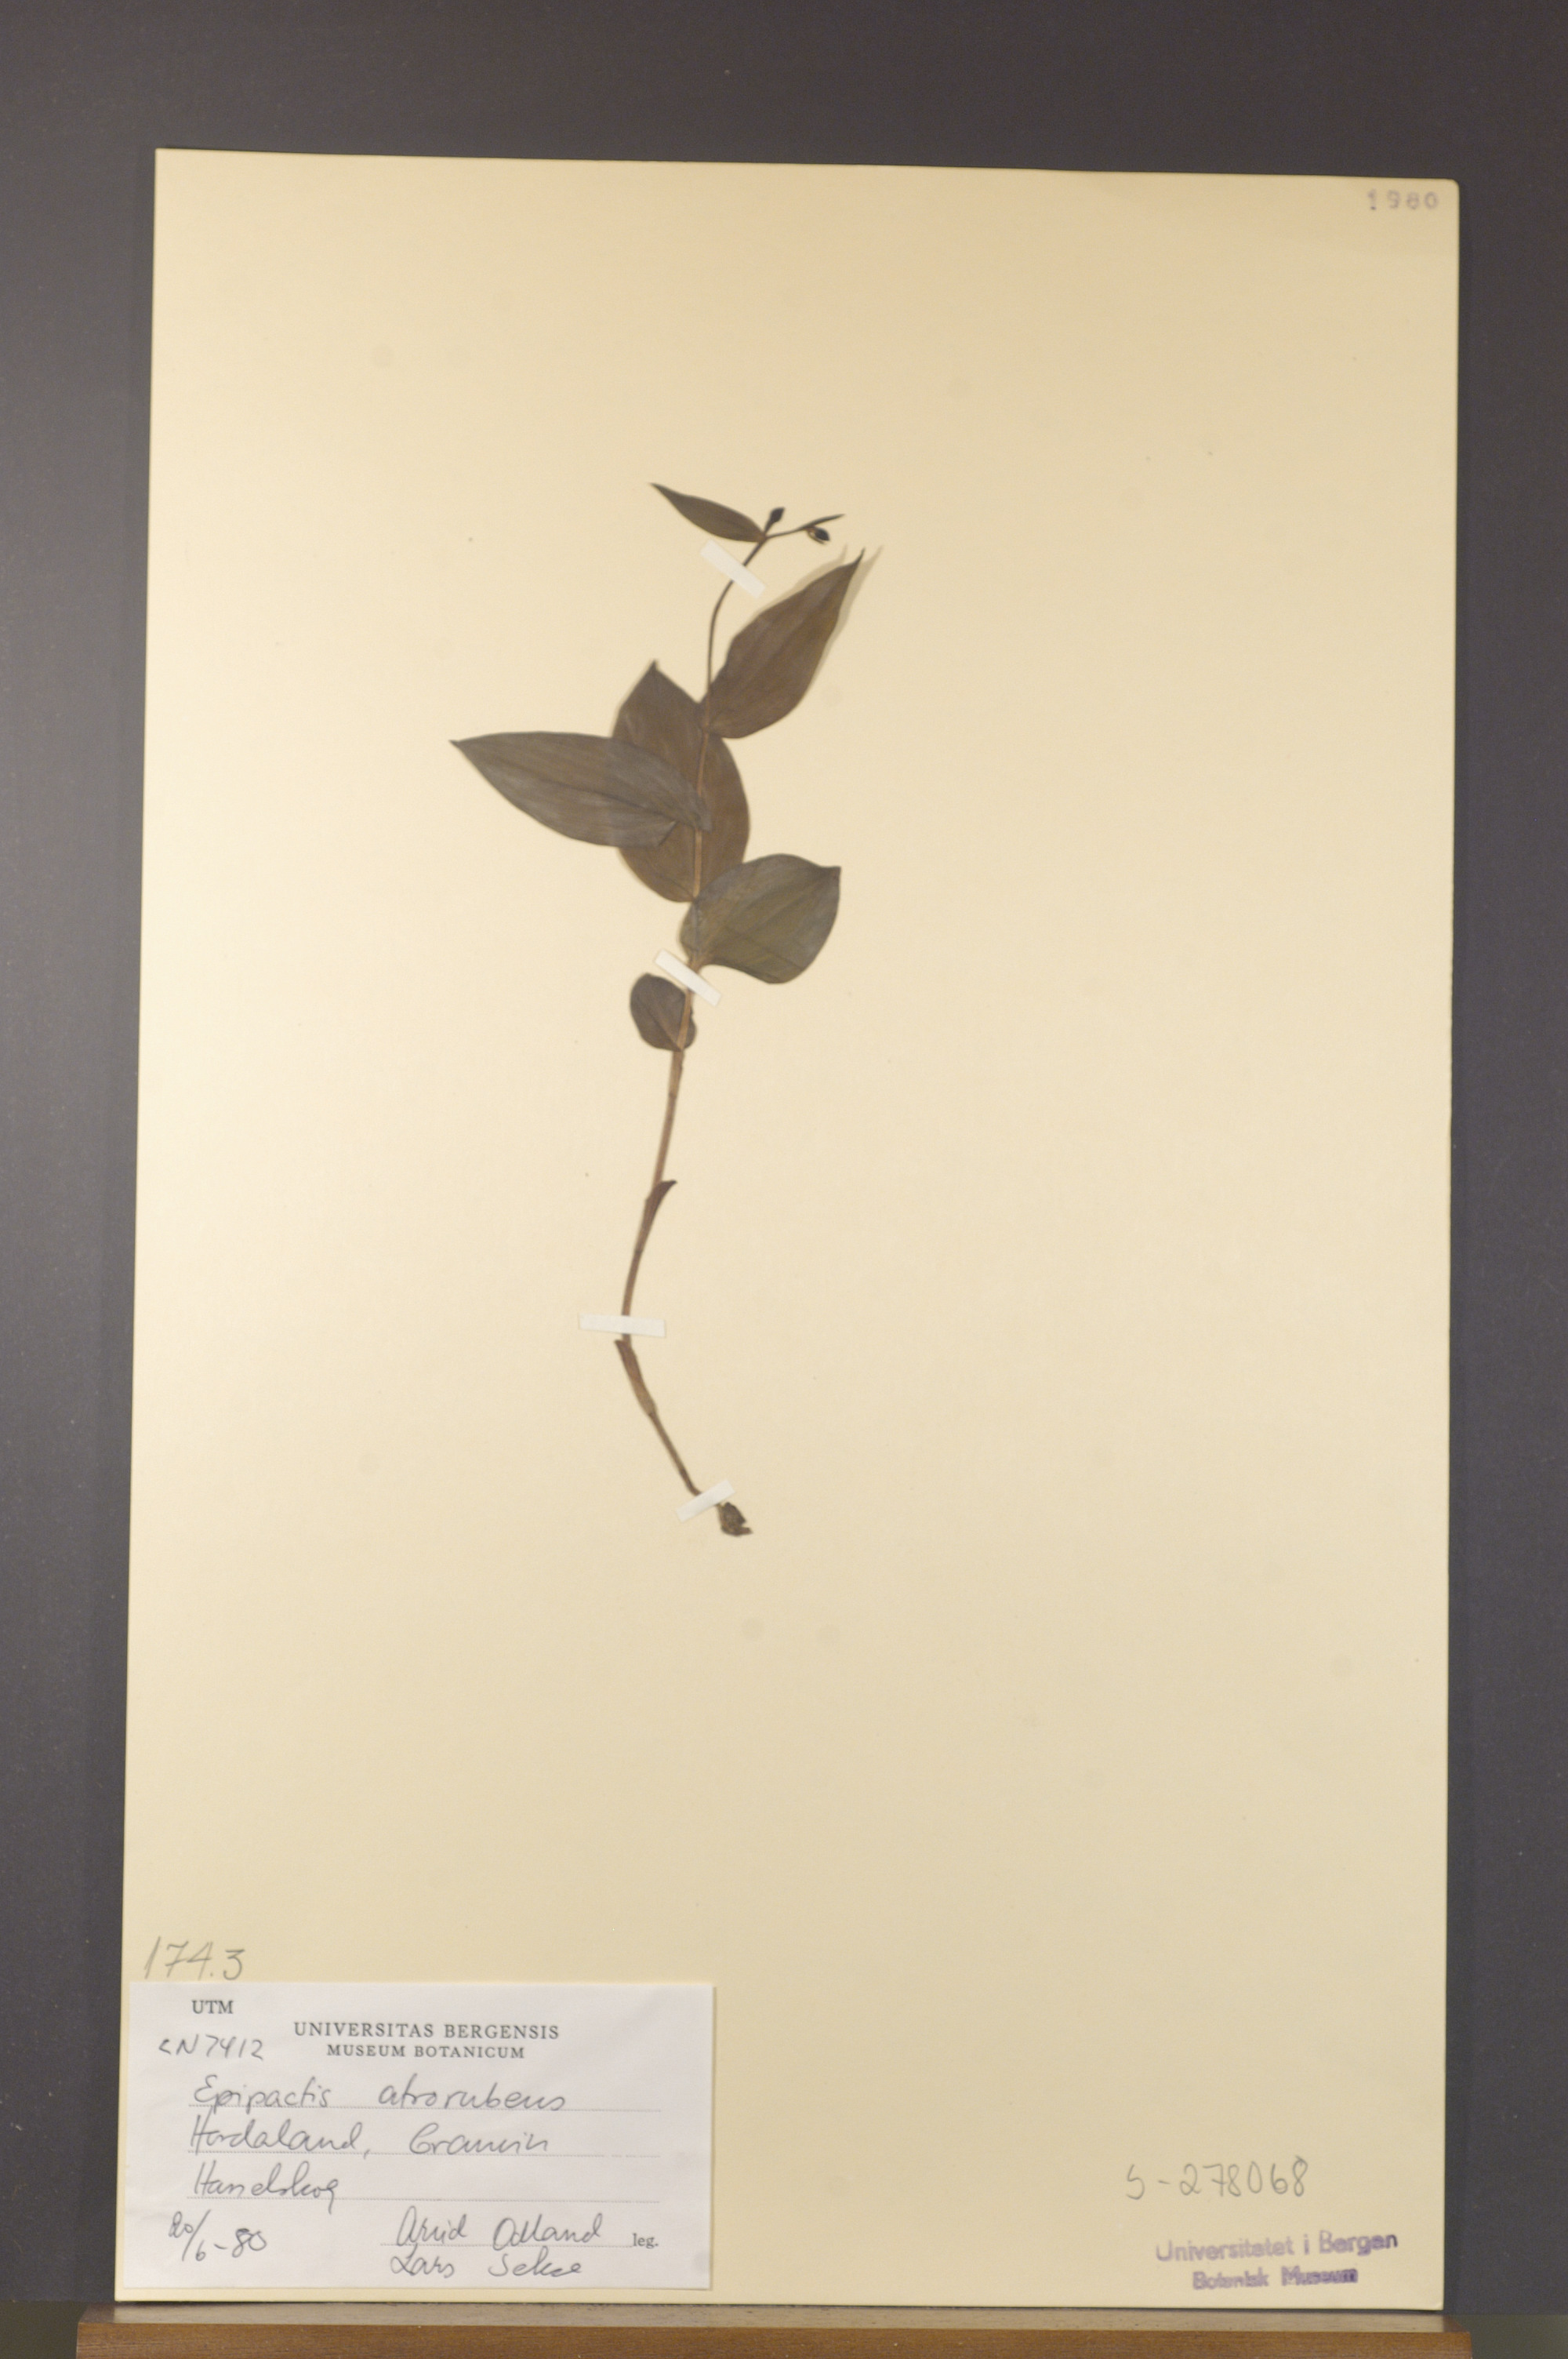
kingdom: Plantae
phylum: Tracheophyta
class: Liliopsida
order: Asparagales
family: Orchidaceae
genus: Epipactis
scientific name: Epipactis atrorubens
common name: Dark-red helleborine
